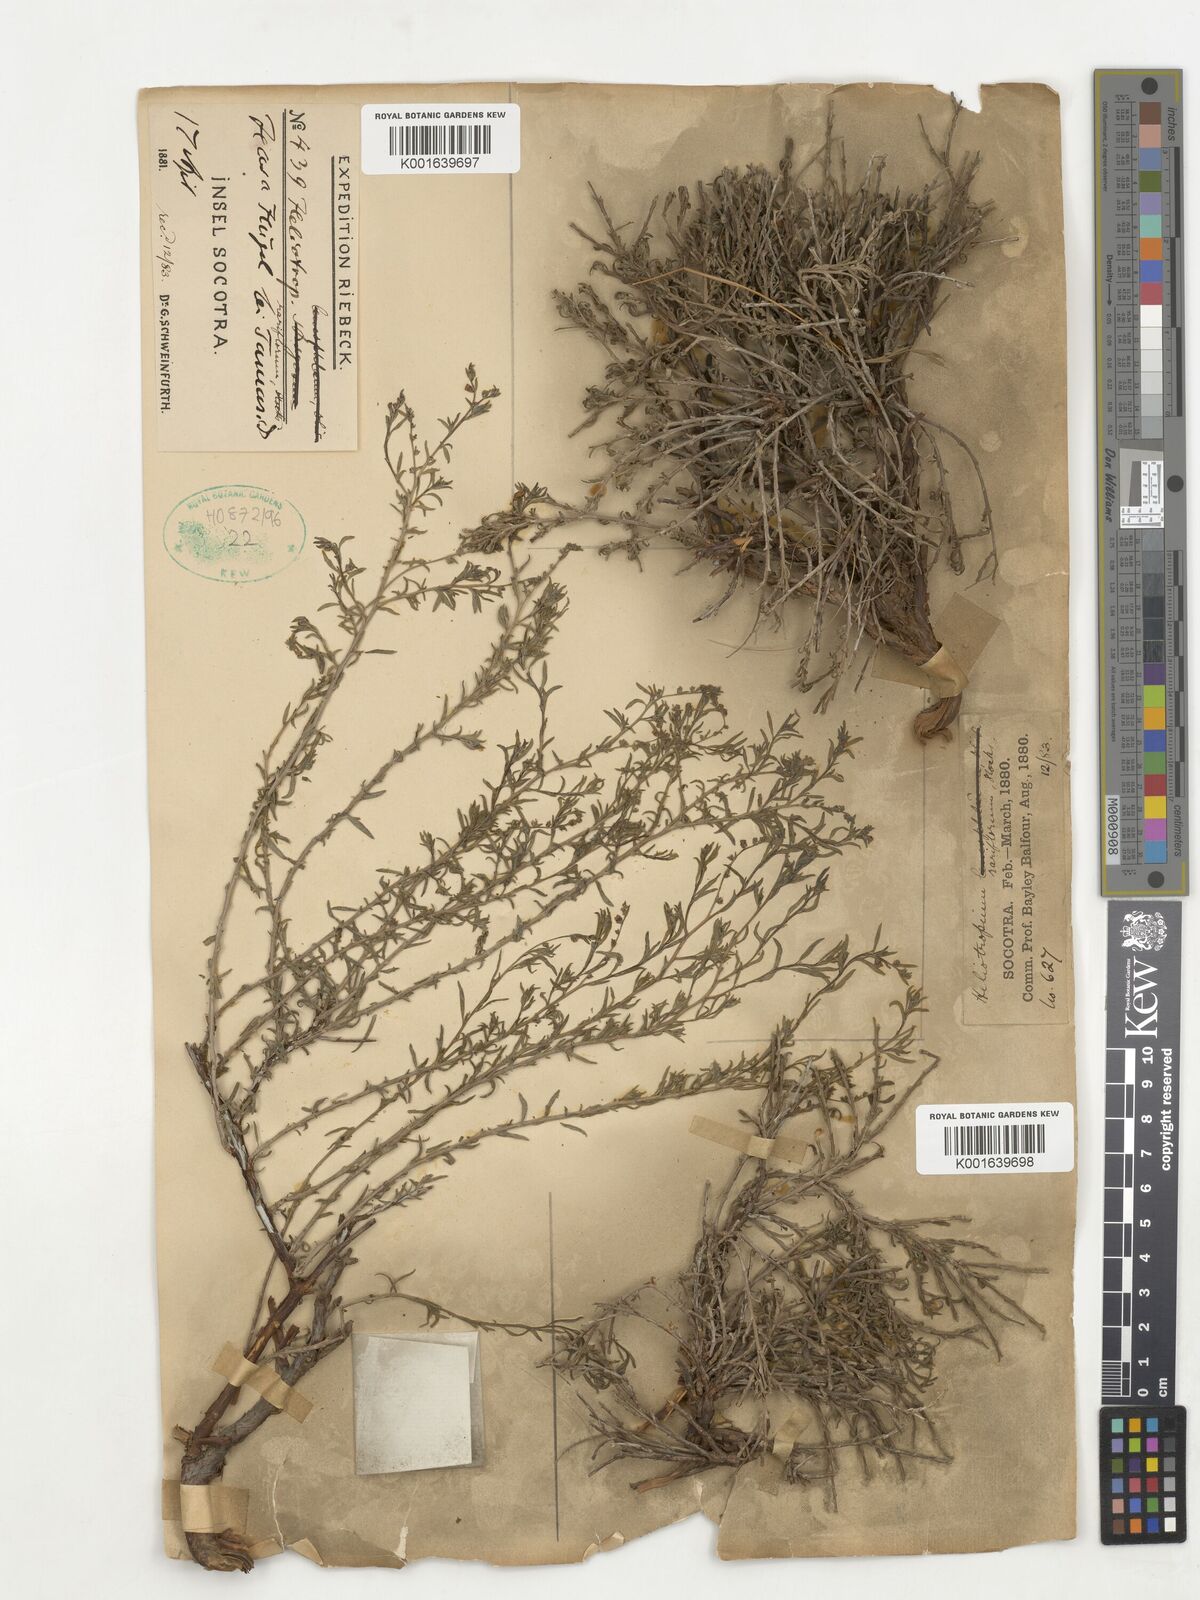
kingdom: Plantae
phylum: Tracheophyta
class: Magnoliopsida
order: Boraginales
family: Heliotropiaceae
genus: Euploca
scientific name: Euploca rariflora
